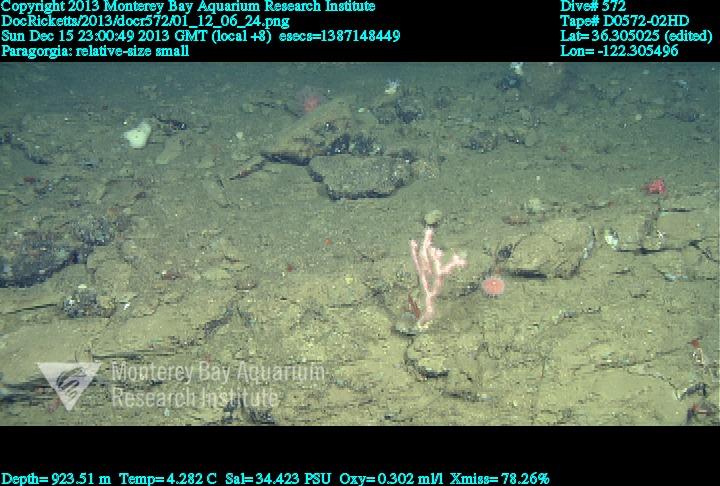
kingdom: Animalia
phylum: Cnidaria
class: Anthozoa
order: Scleralcyonacea
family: Coralliidae
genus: Sibogagorgia
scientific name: Sibogagorgia cauliflora
